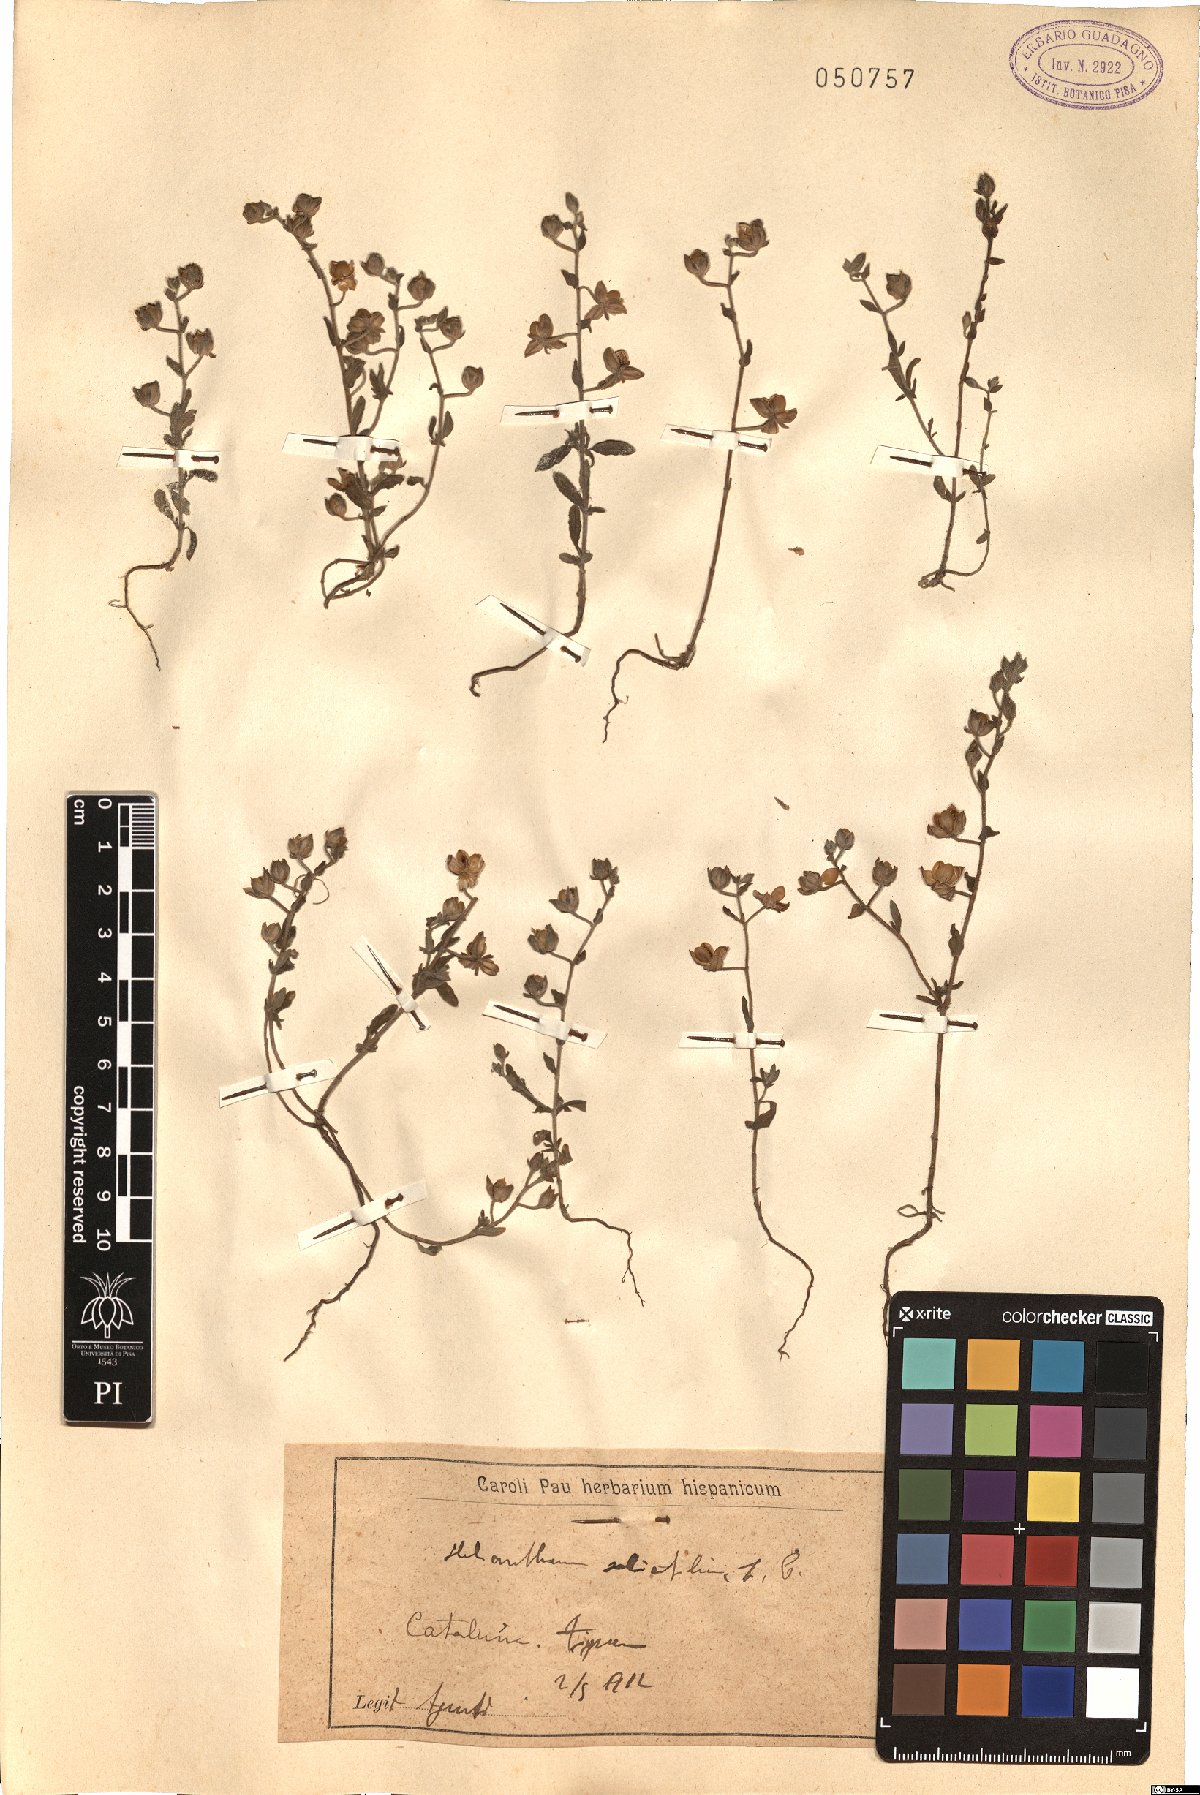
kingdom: Plantae
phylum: Tracheophyta
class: Magnoliopsida
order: Malvales
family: Cistaceae
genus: Helianthemum
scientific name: Helianthemum salicifolium
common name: Willowleaf frostweed
